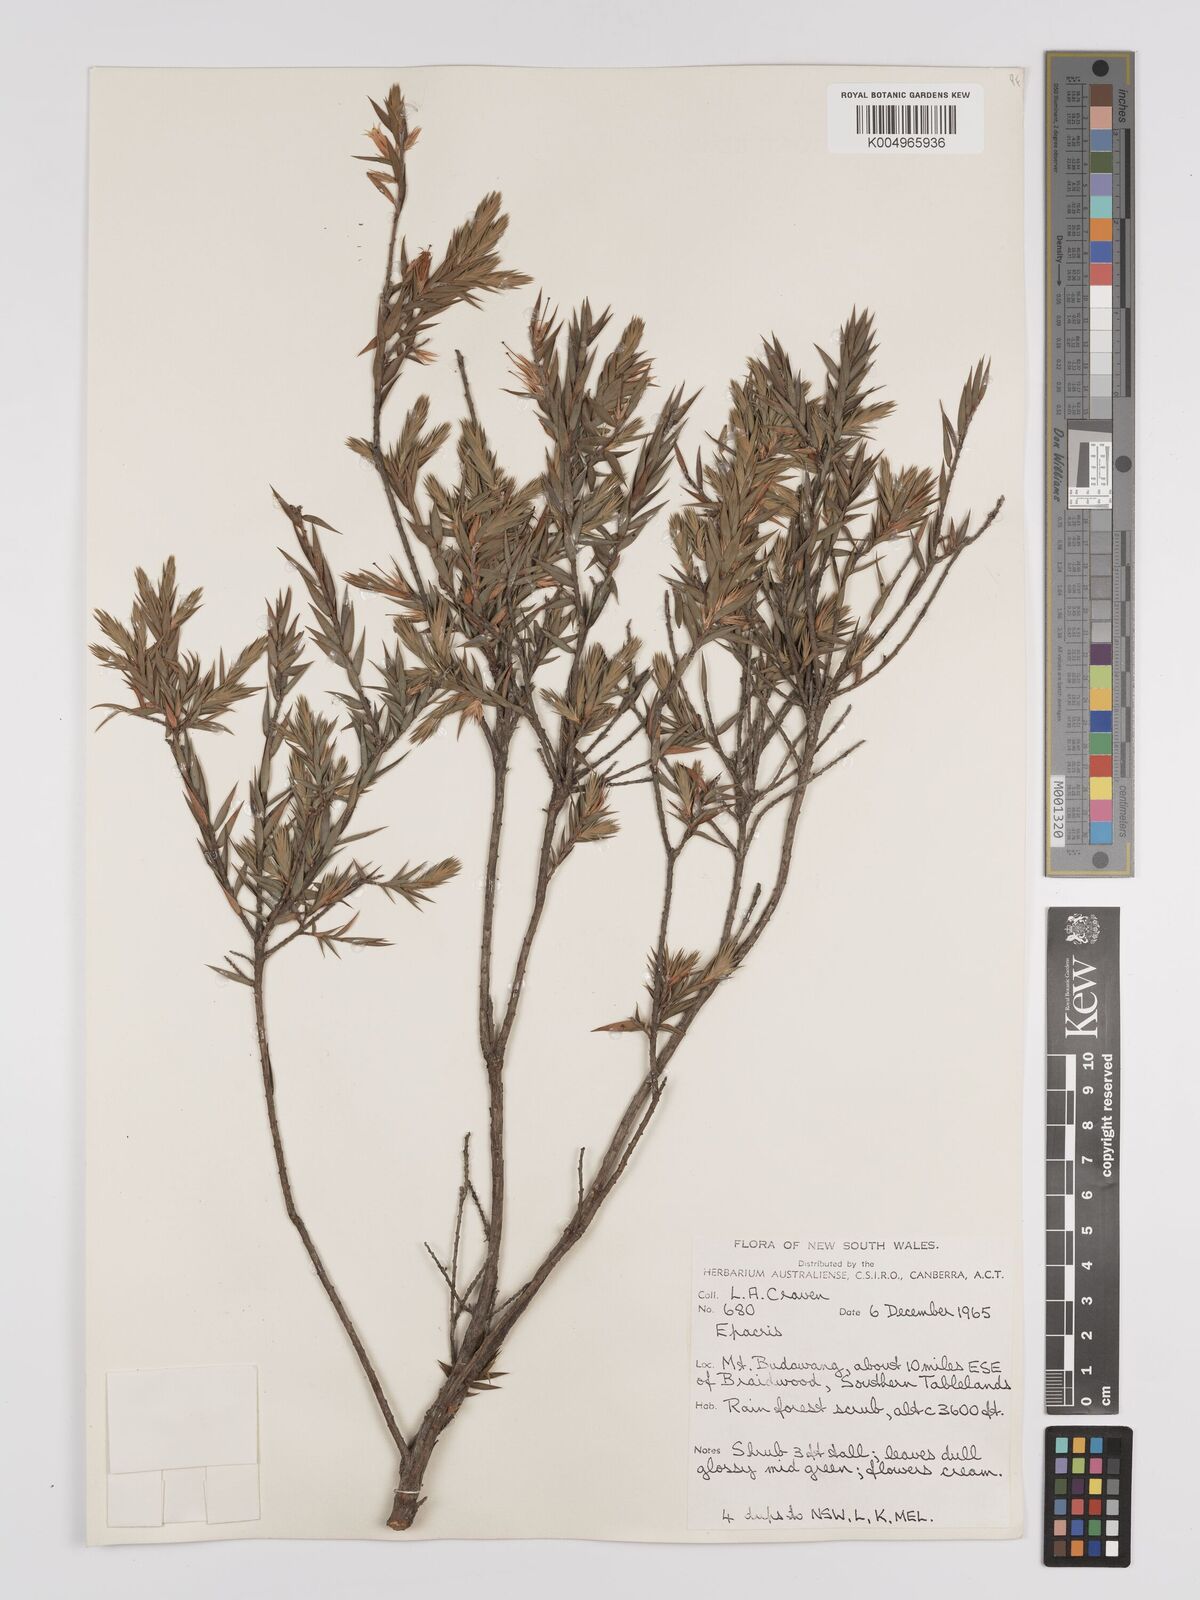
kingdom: Plantae
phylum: Tracheophyta
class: Magnoliopsida
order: Ericales
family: Ericaceae
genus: Epacris
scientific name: Epacris
